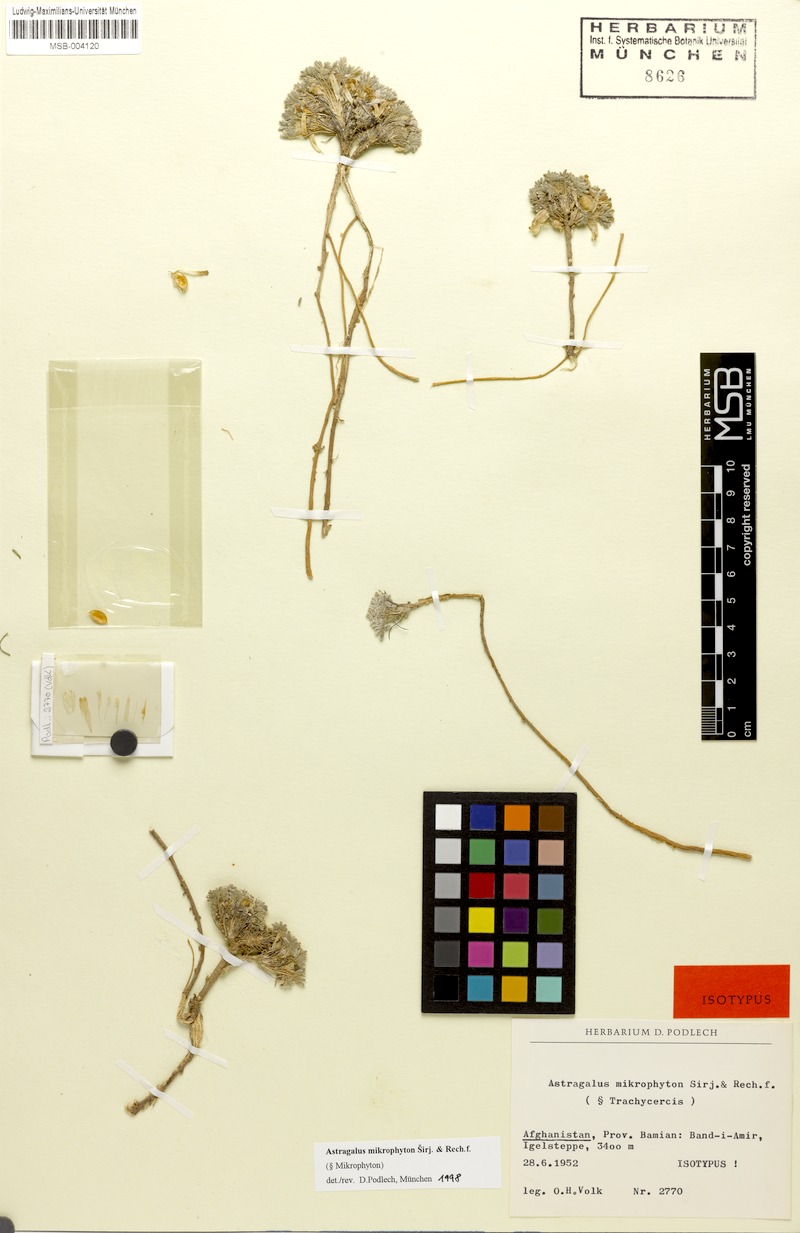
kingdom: Plantae
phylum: Tracheophyta
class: Magnoliopsida
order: Fabales
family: Fabaceae
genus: Astragalus
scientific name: Astragalus mikrophyton
